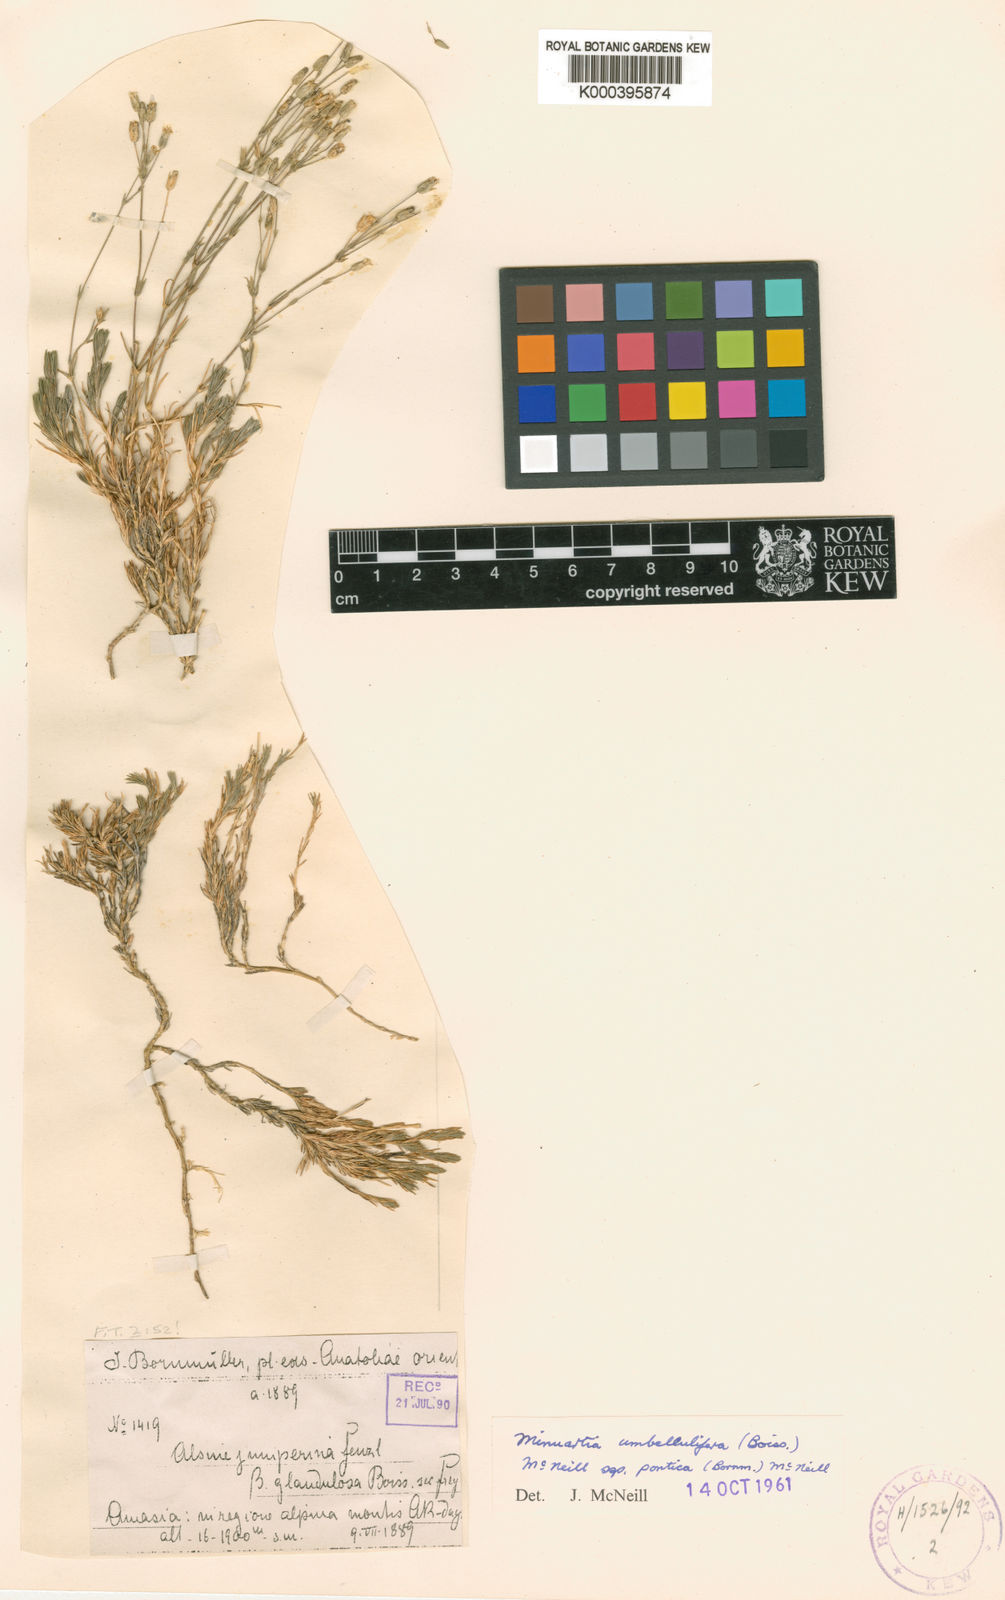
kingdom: Plantae
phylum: Tracheophyta
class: Magnoliopsida
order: Caryophyllales
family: Caryophyllaceae
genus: Sabulina
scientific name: Sabulina umbellulifera
